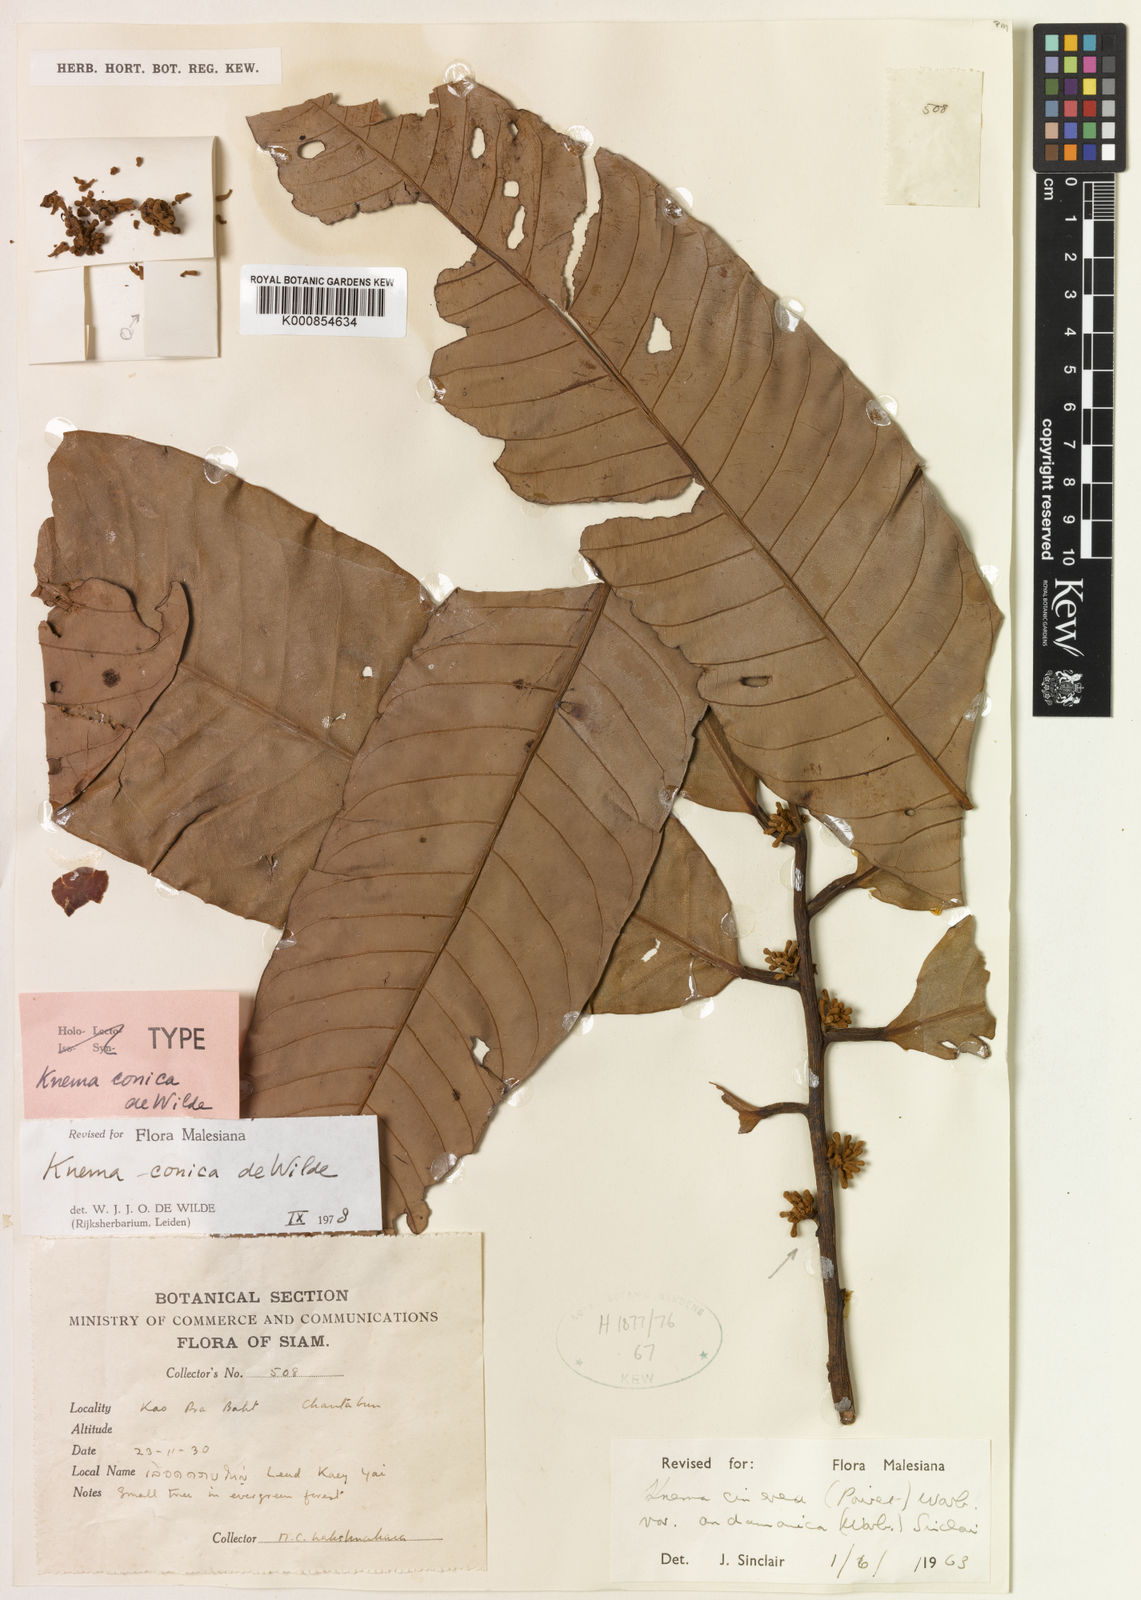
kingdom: Plantae
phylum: Tracheophyta
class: Magnoliopsida
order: Magnoliales
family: Myristicaceae
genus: Knema
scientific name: Knema conica
